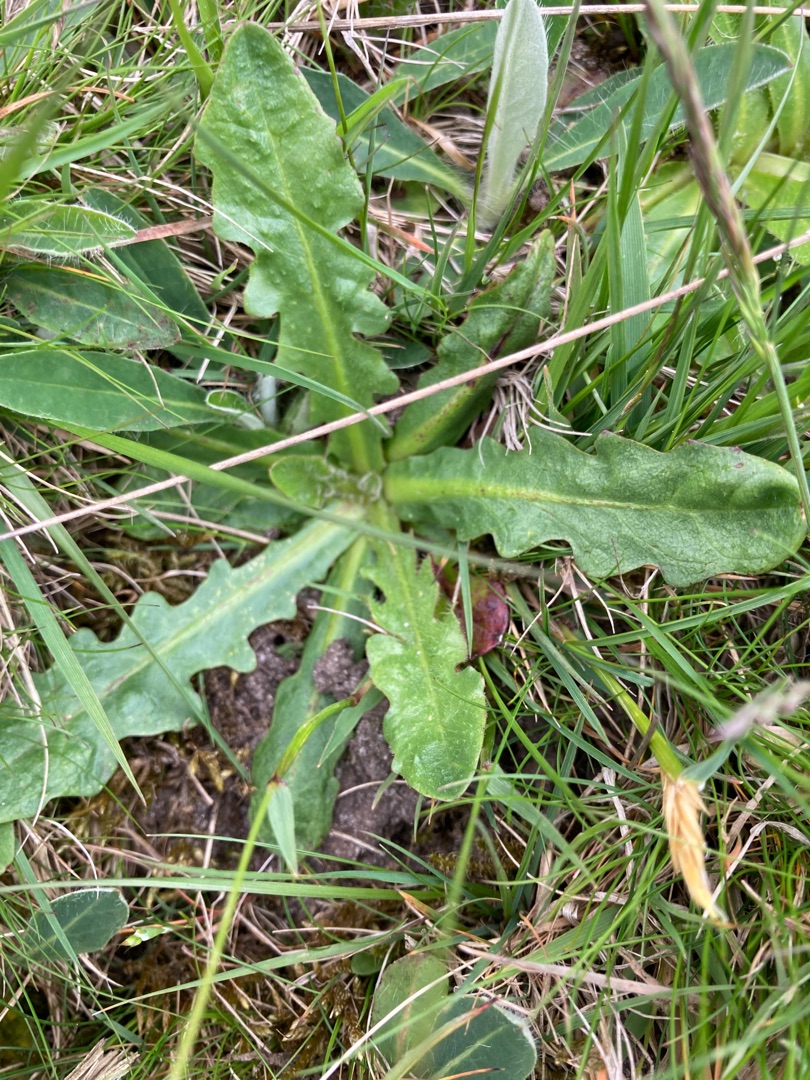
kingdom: Plantae
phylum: Tracheophyta
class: Magnoliopsida
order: Asterales
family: Asteraceae
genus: Hypochaeris
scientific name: Hypochaeris radicata
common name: Almindelig kongepen
